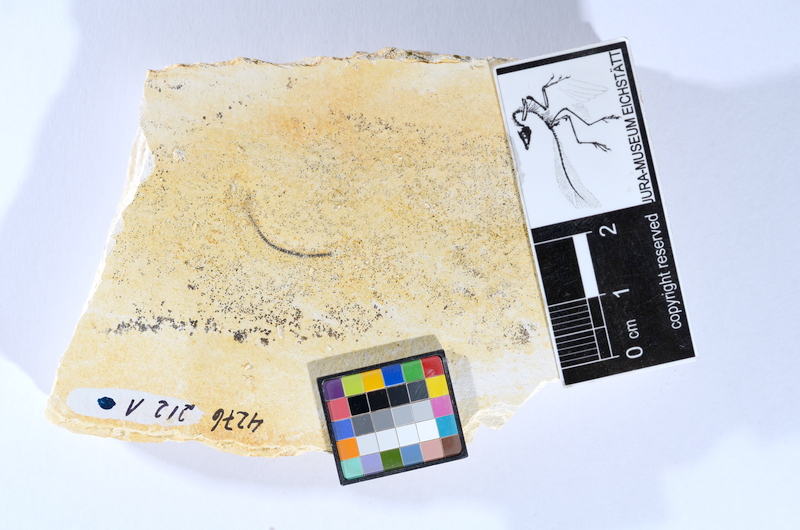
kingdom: Animalia
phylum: Chordata
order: Salmoniformes
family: Orthogonikleithridae
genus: Orthogonikleithrus
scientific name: Orthogonikleithrus hoelli
